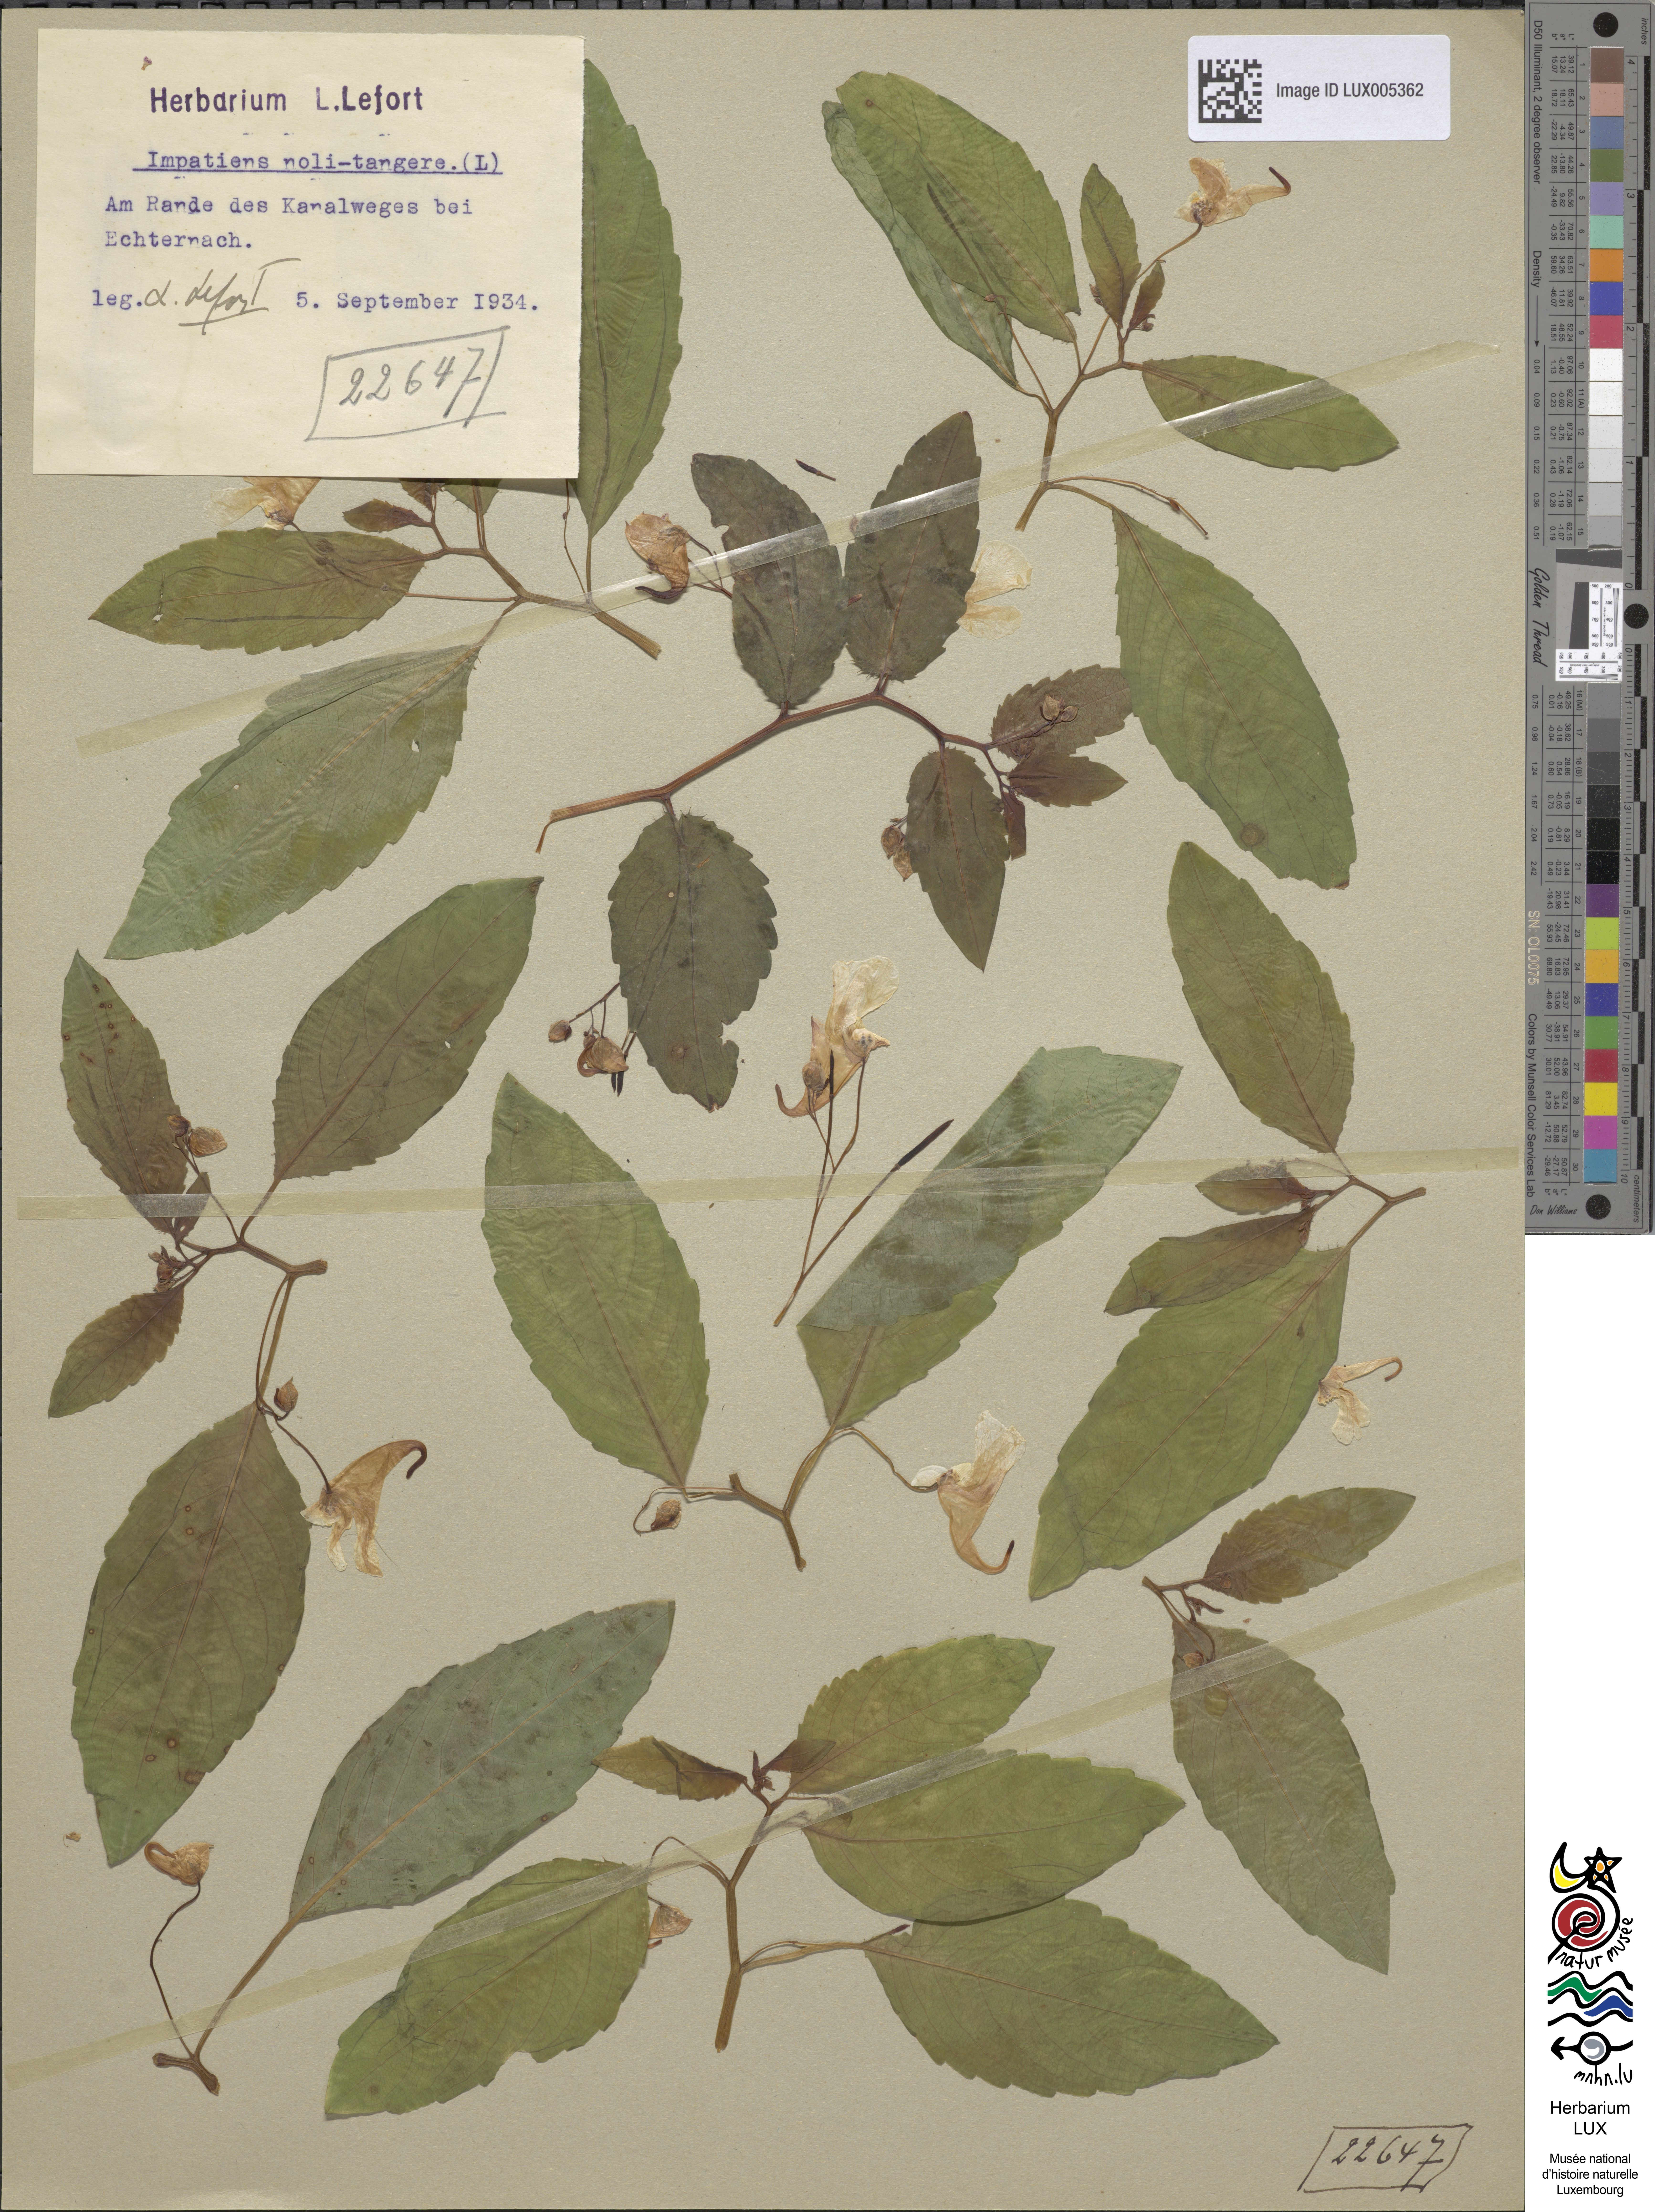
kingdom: Plantae
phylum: Tracheophyta
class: Magnoliopsida
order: Ericales
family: Balsaminaceae
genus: Impatiens
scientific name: Impatiens noli-tangere
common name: Touch-me-not balsam
